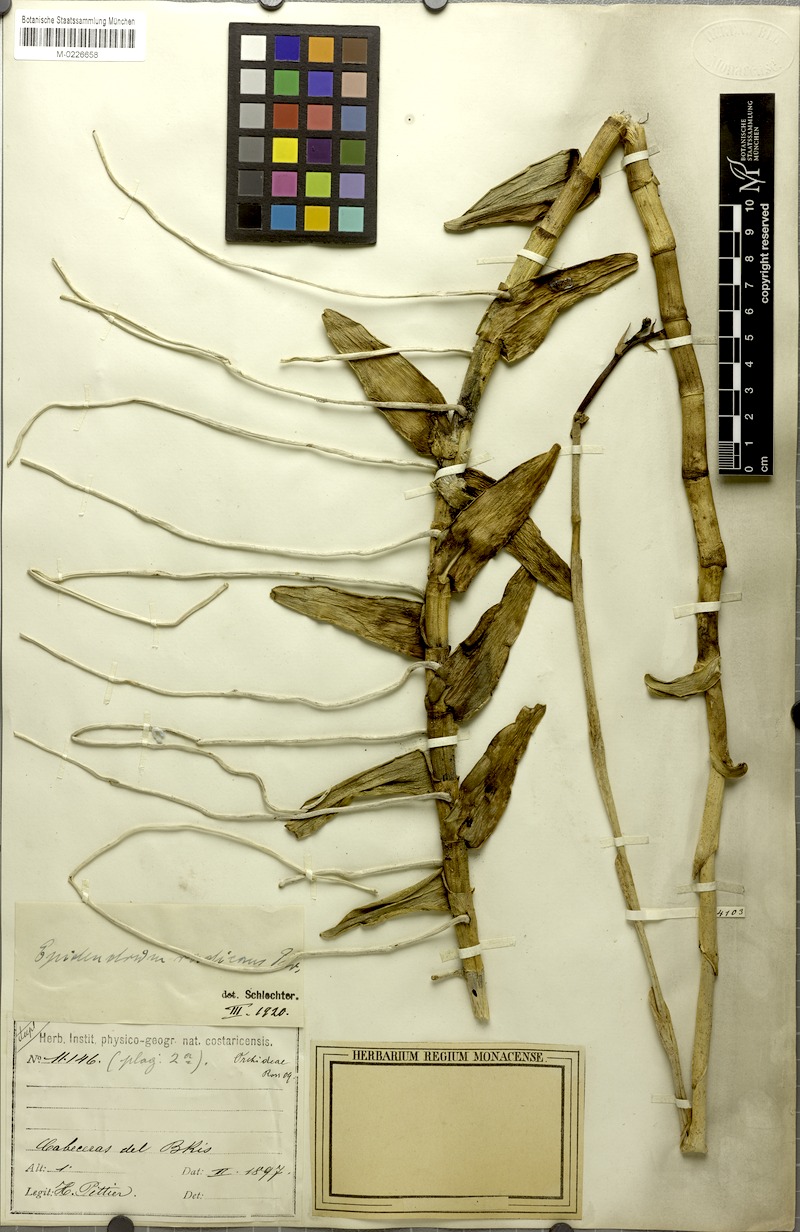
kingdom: Plantae
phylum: Tracheophyta
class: Liliopsida
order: Asparagales
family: Orchidaceae
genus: Epidendrum
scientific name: Epidendrum radicans
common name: Fire star orchid
